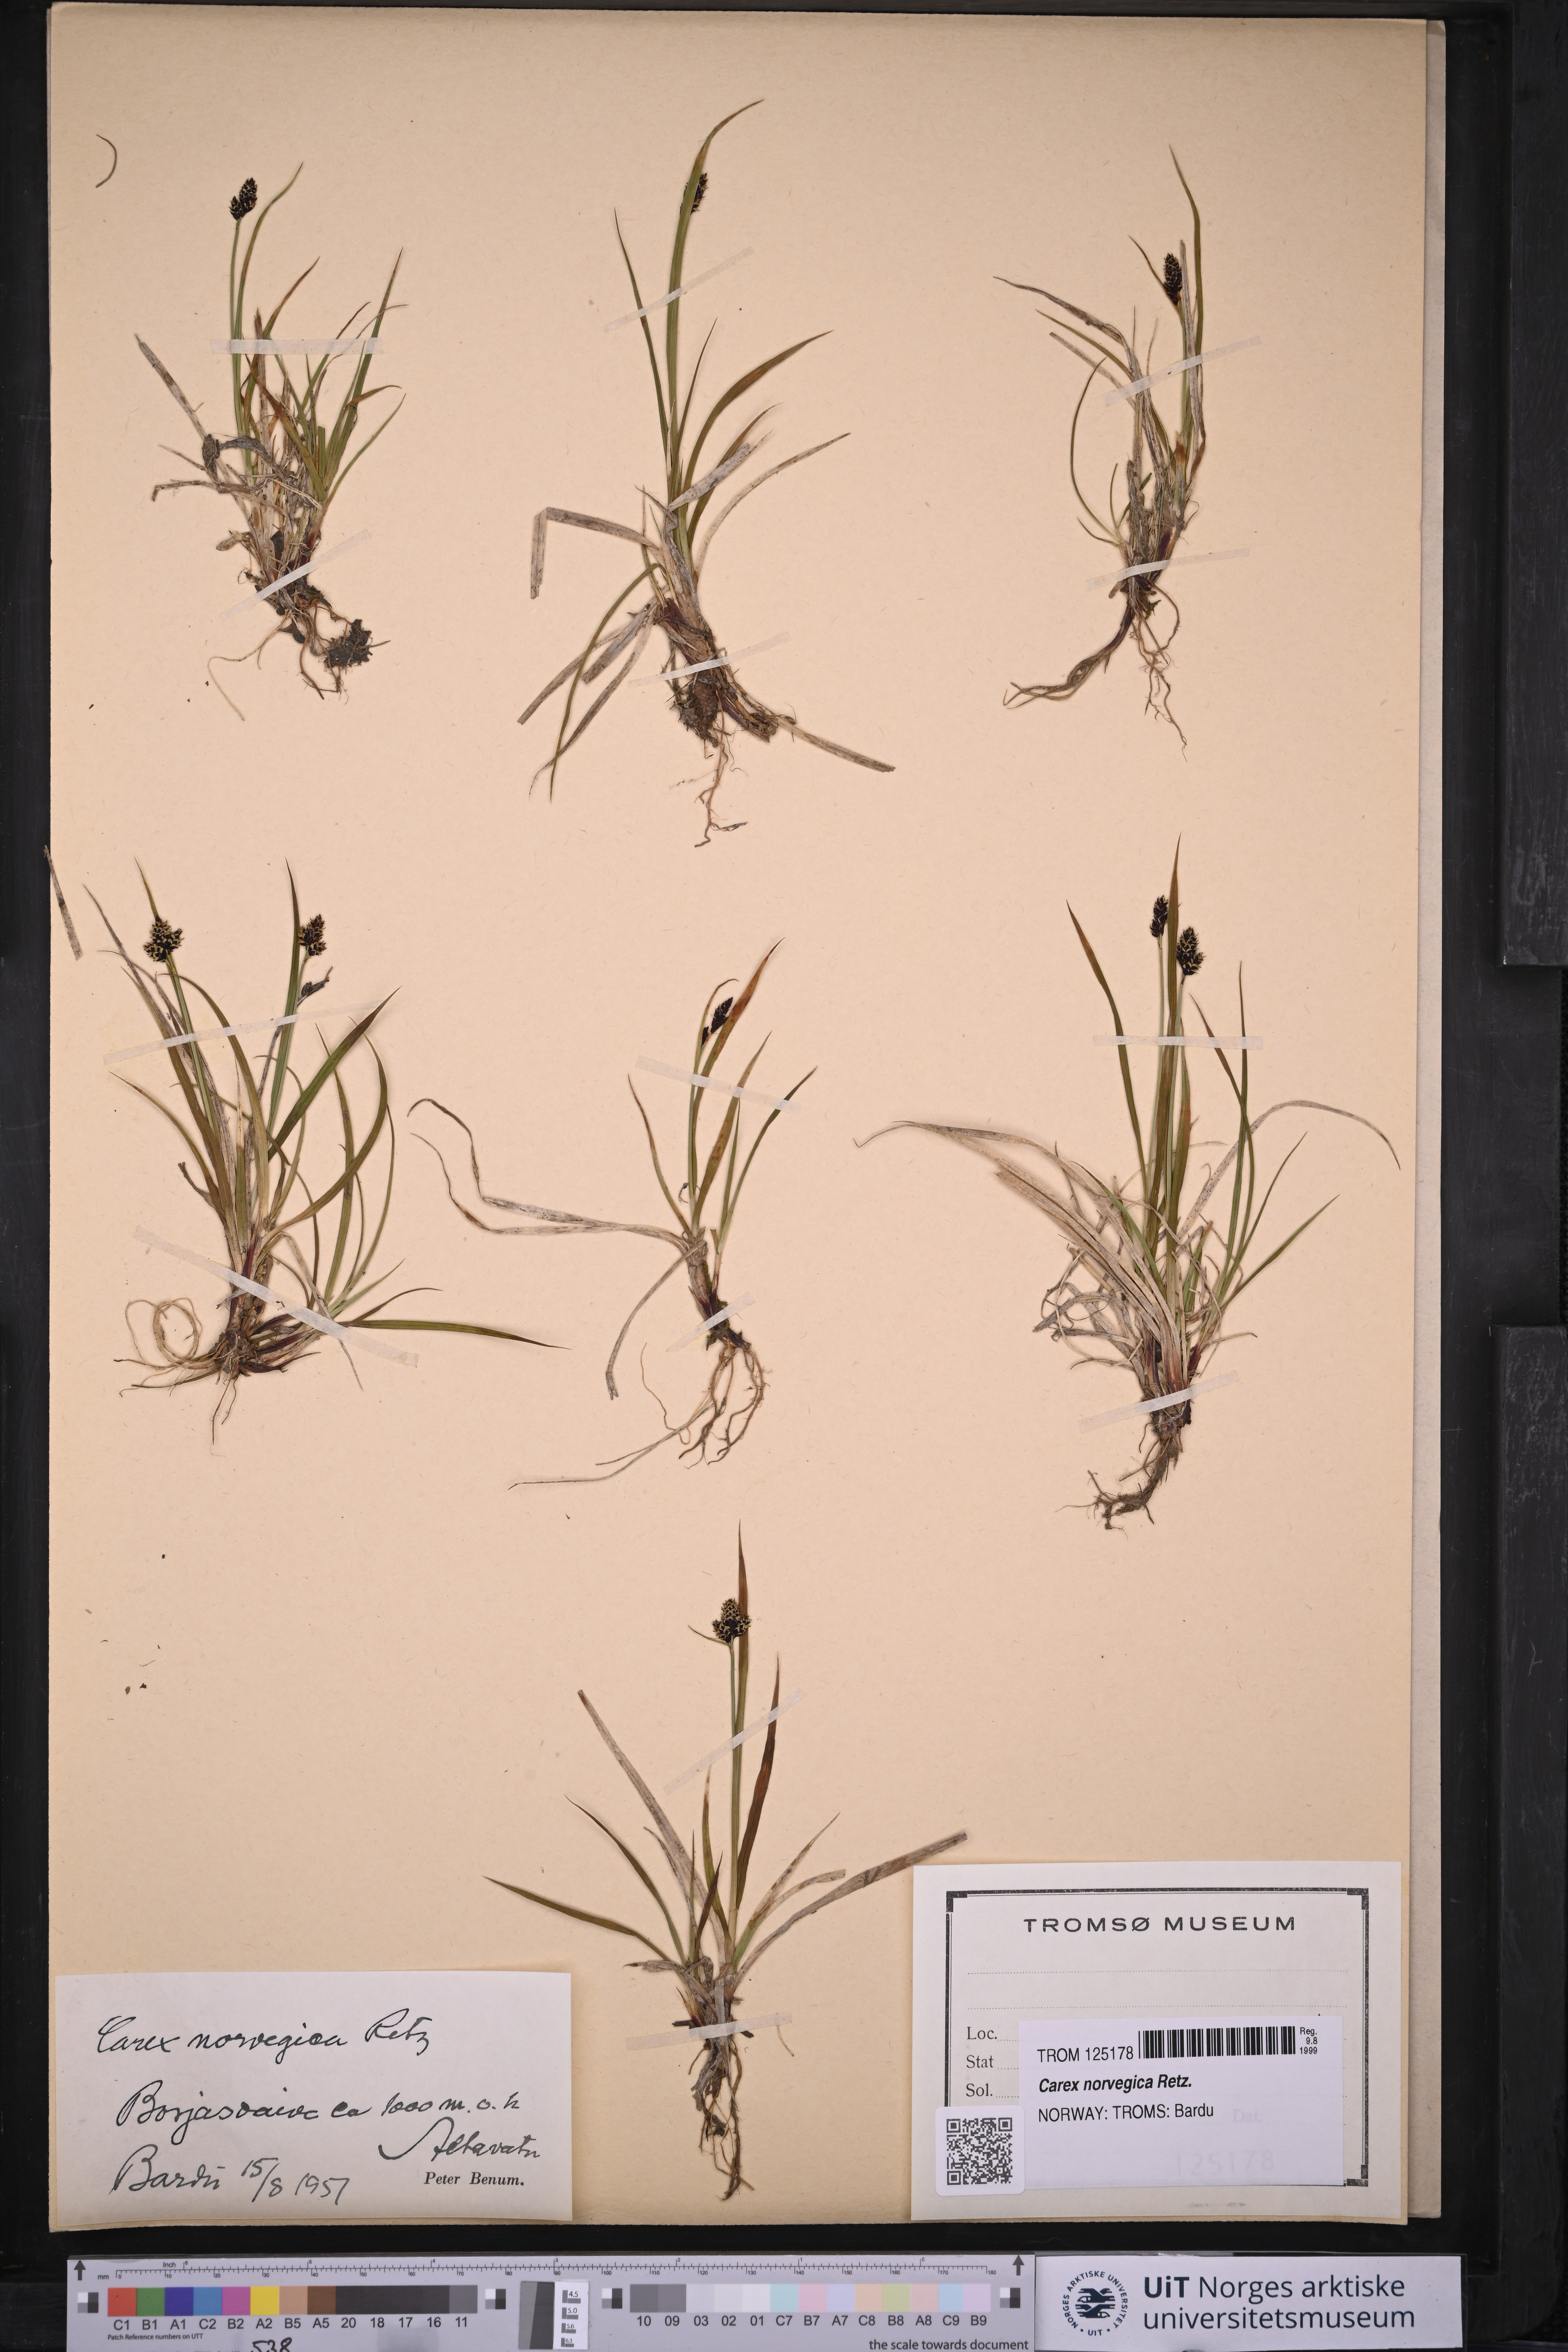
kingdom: Plantae
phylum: Tracheophyta
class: Liliopsida
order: Poales
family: Cyperaceae
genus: Carex
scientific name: Carex norvegica
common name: Close-headed alpine-sedge
